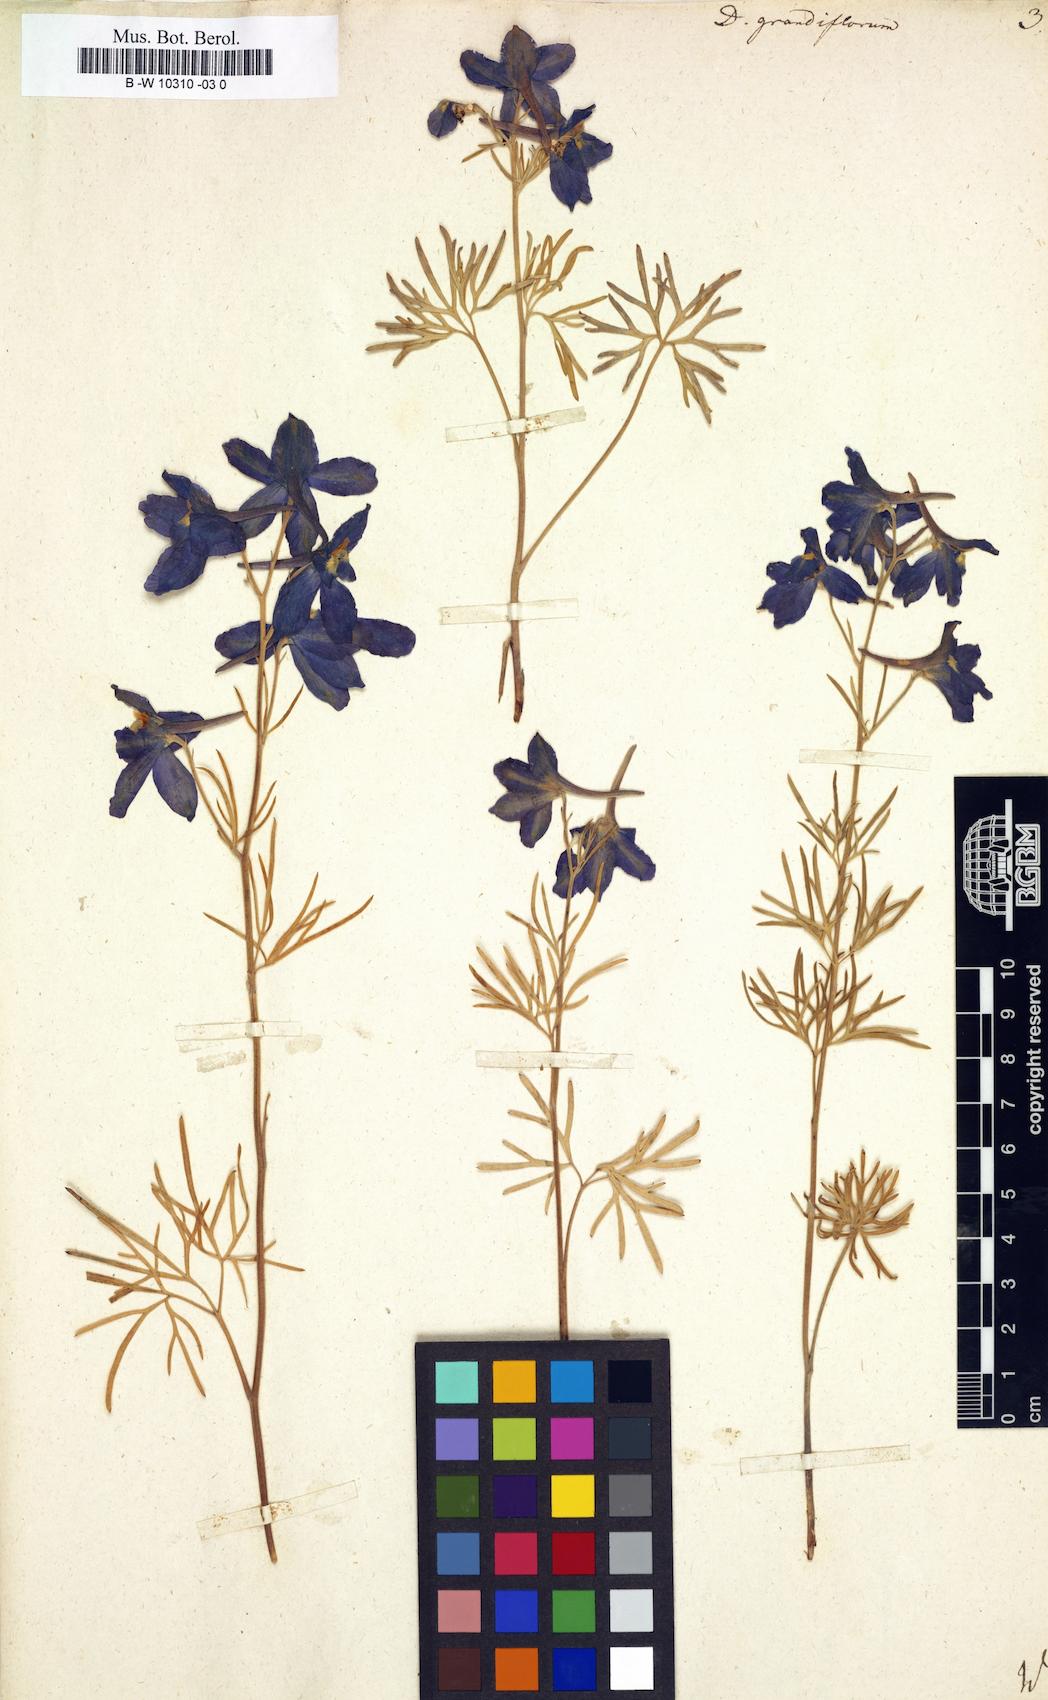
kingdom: Plantae
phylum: Tracheophyta
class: Magnoliopsida
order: Ranunculales
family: Ranunculaceae
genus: Delphinium
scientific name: Delphinium grandiflorum
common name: Siberian larkspur
